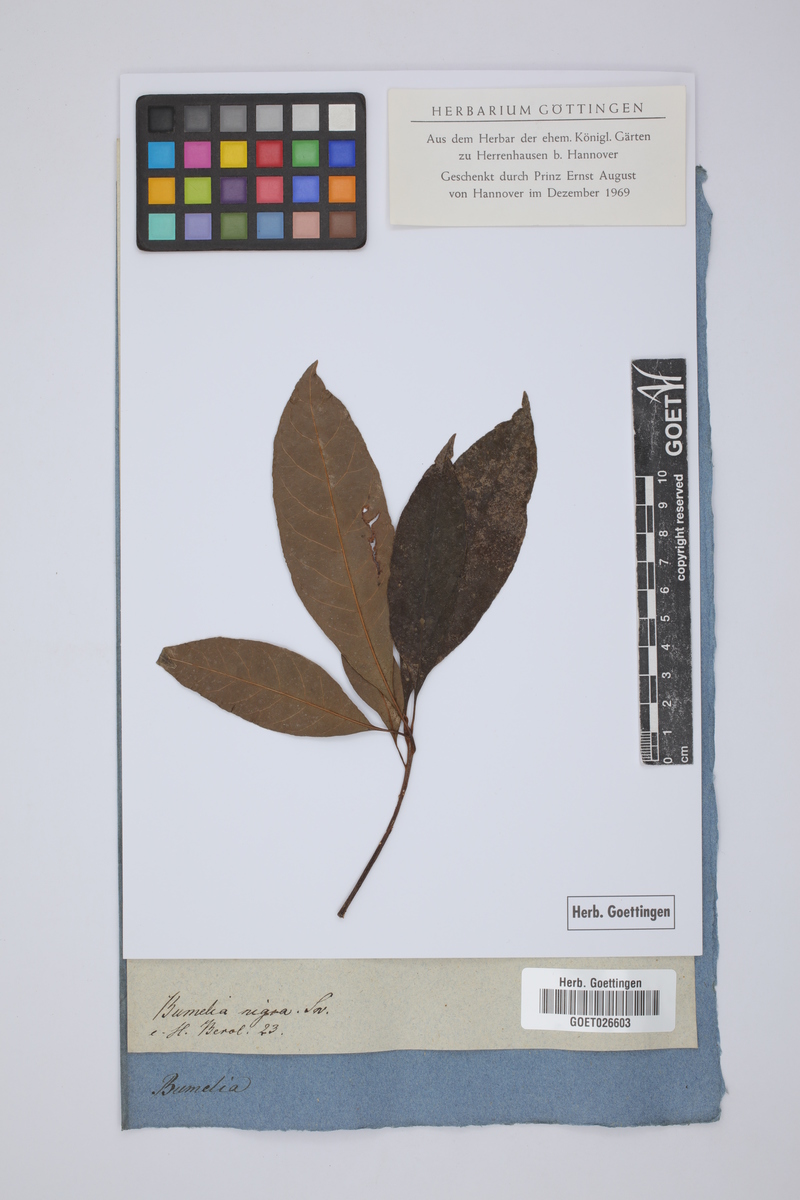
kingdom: Plantae
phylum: Tracheophyta
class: Magnoliopsida
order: Ericales
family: Sapotaceae
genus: Sideroxylon
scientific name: Sideroxylon portoricense
